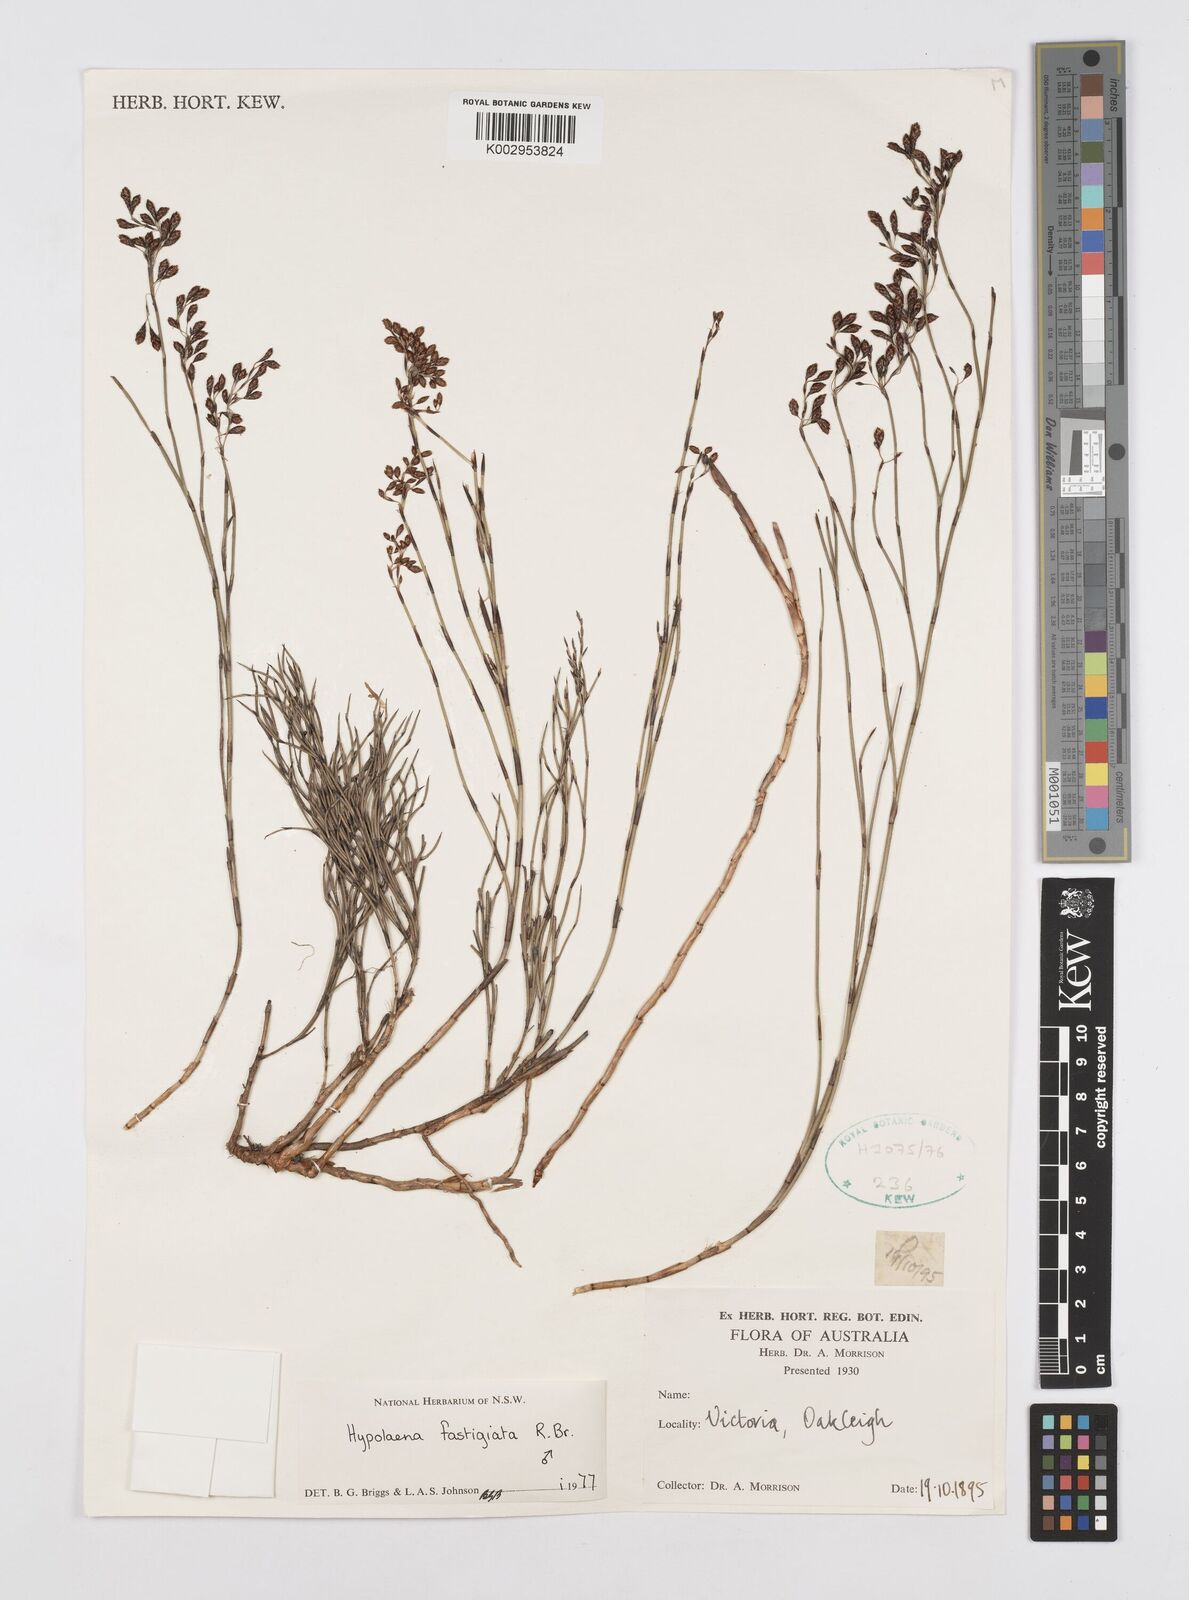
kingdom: Plantae
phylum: Tracheophyta
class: Liliopsida
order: Poales
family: Restionaceae
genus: Hypolaena
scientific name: Hypolaena fastigiata
